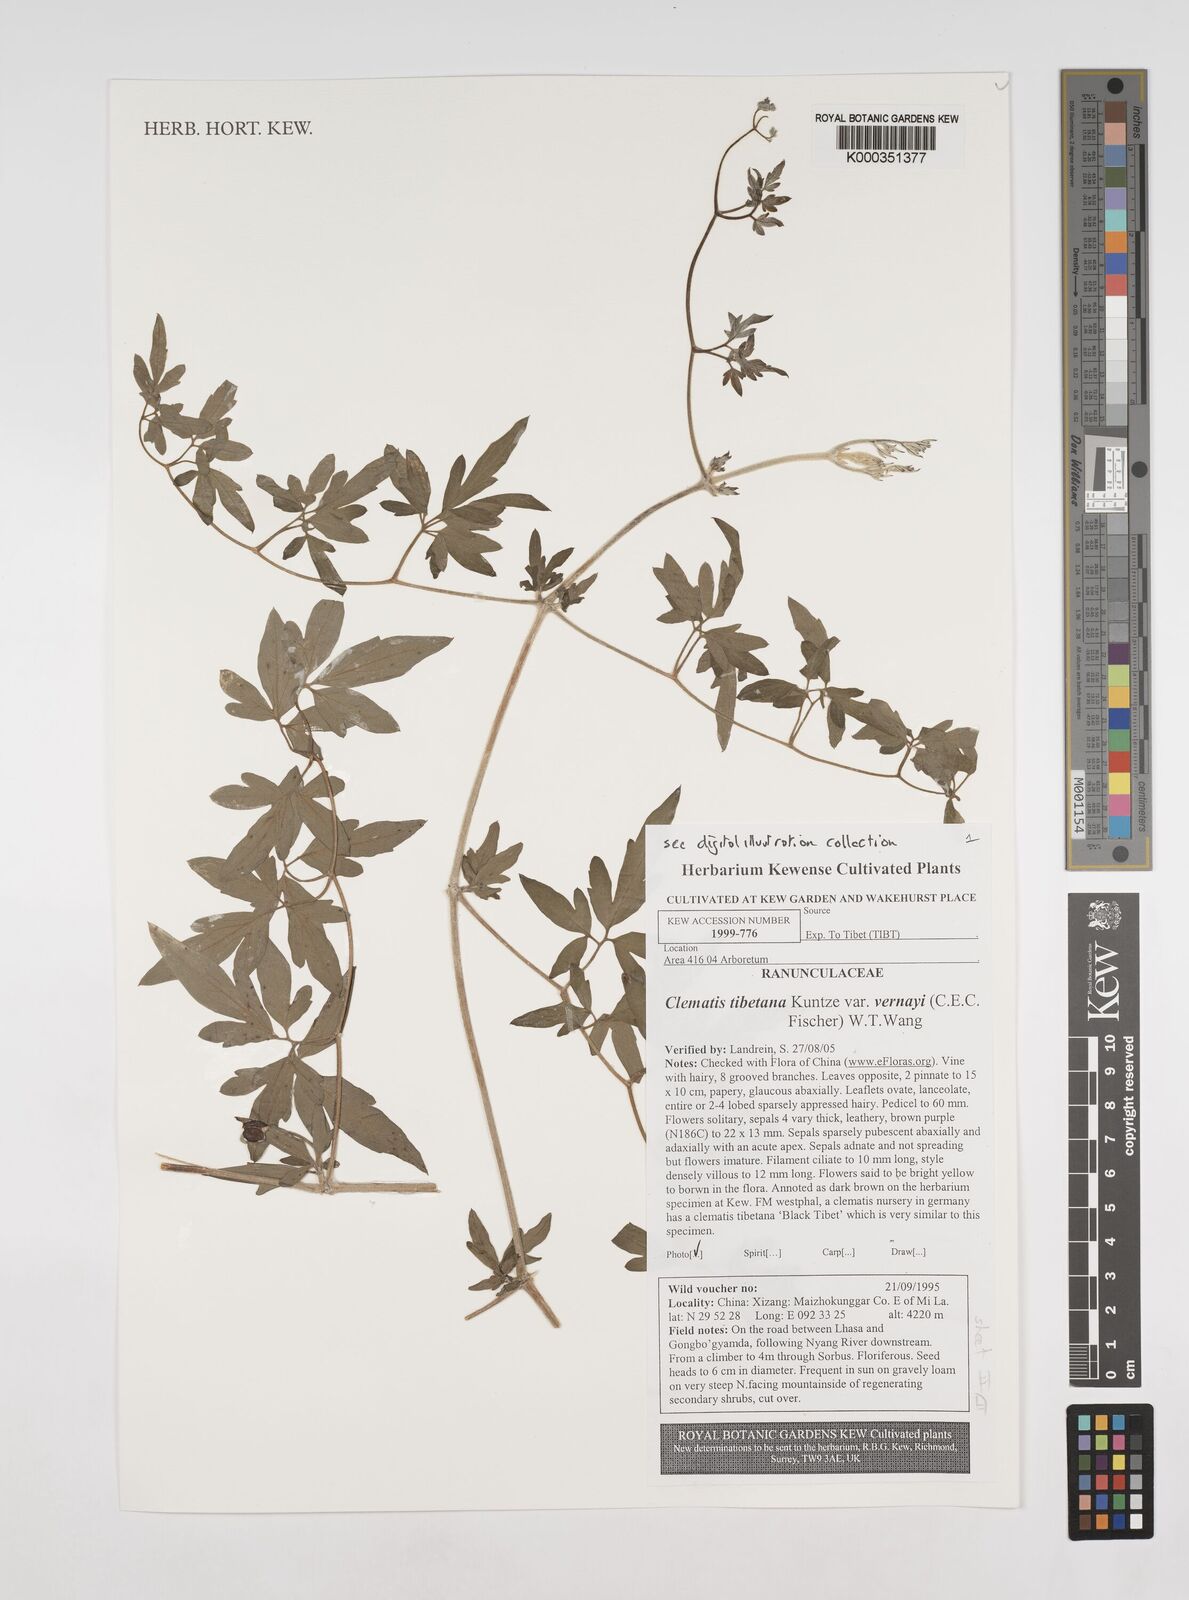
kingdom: Plantae
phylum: Tracheophyta
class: Magnoliopsida
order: Ranunculales
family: Ranunculaceae
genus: Clematis
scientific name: Clematis tibetana
